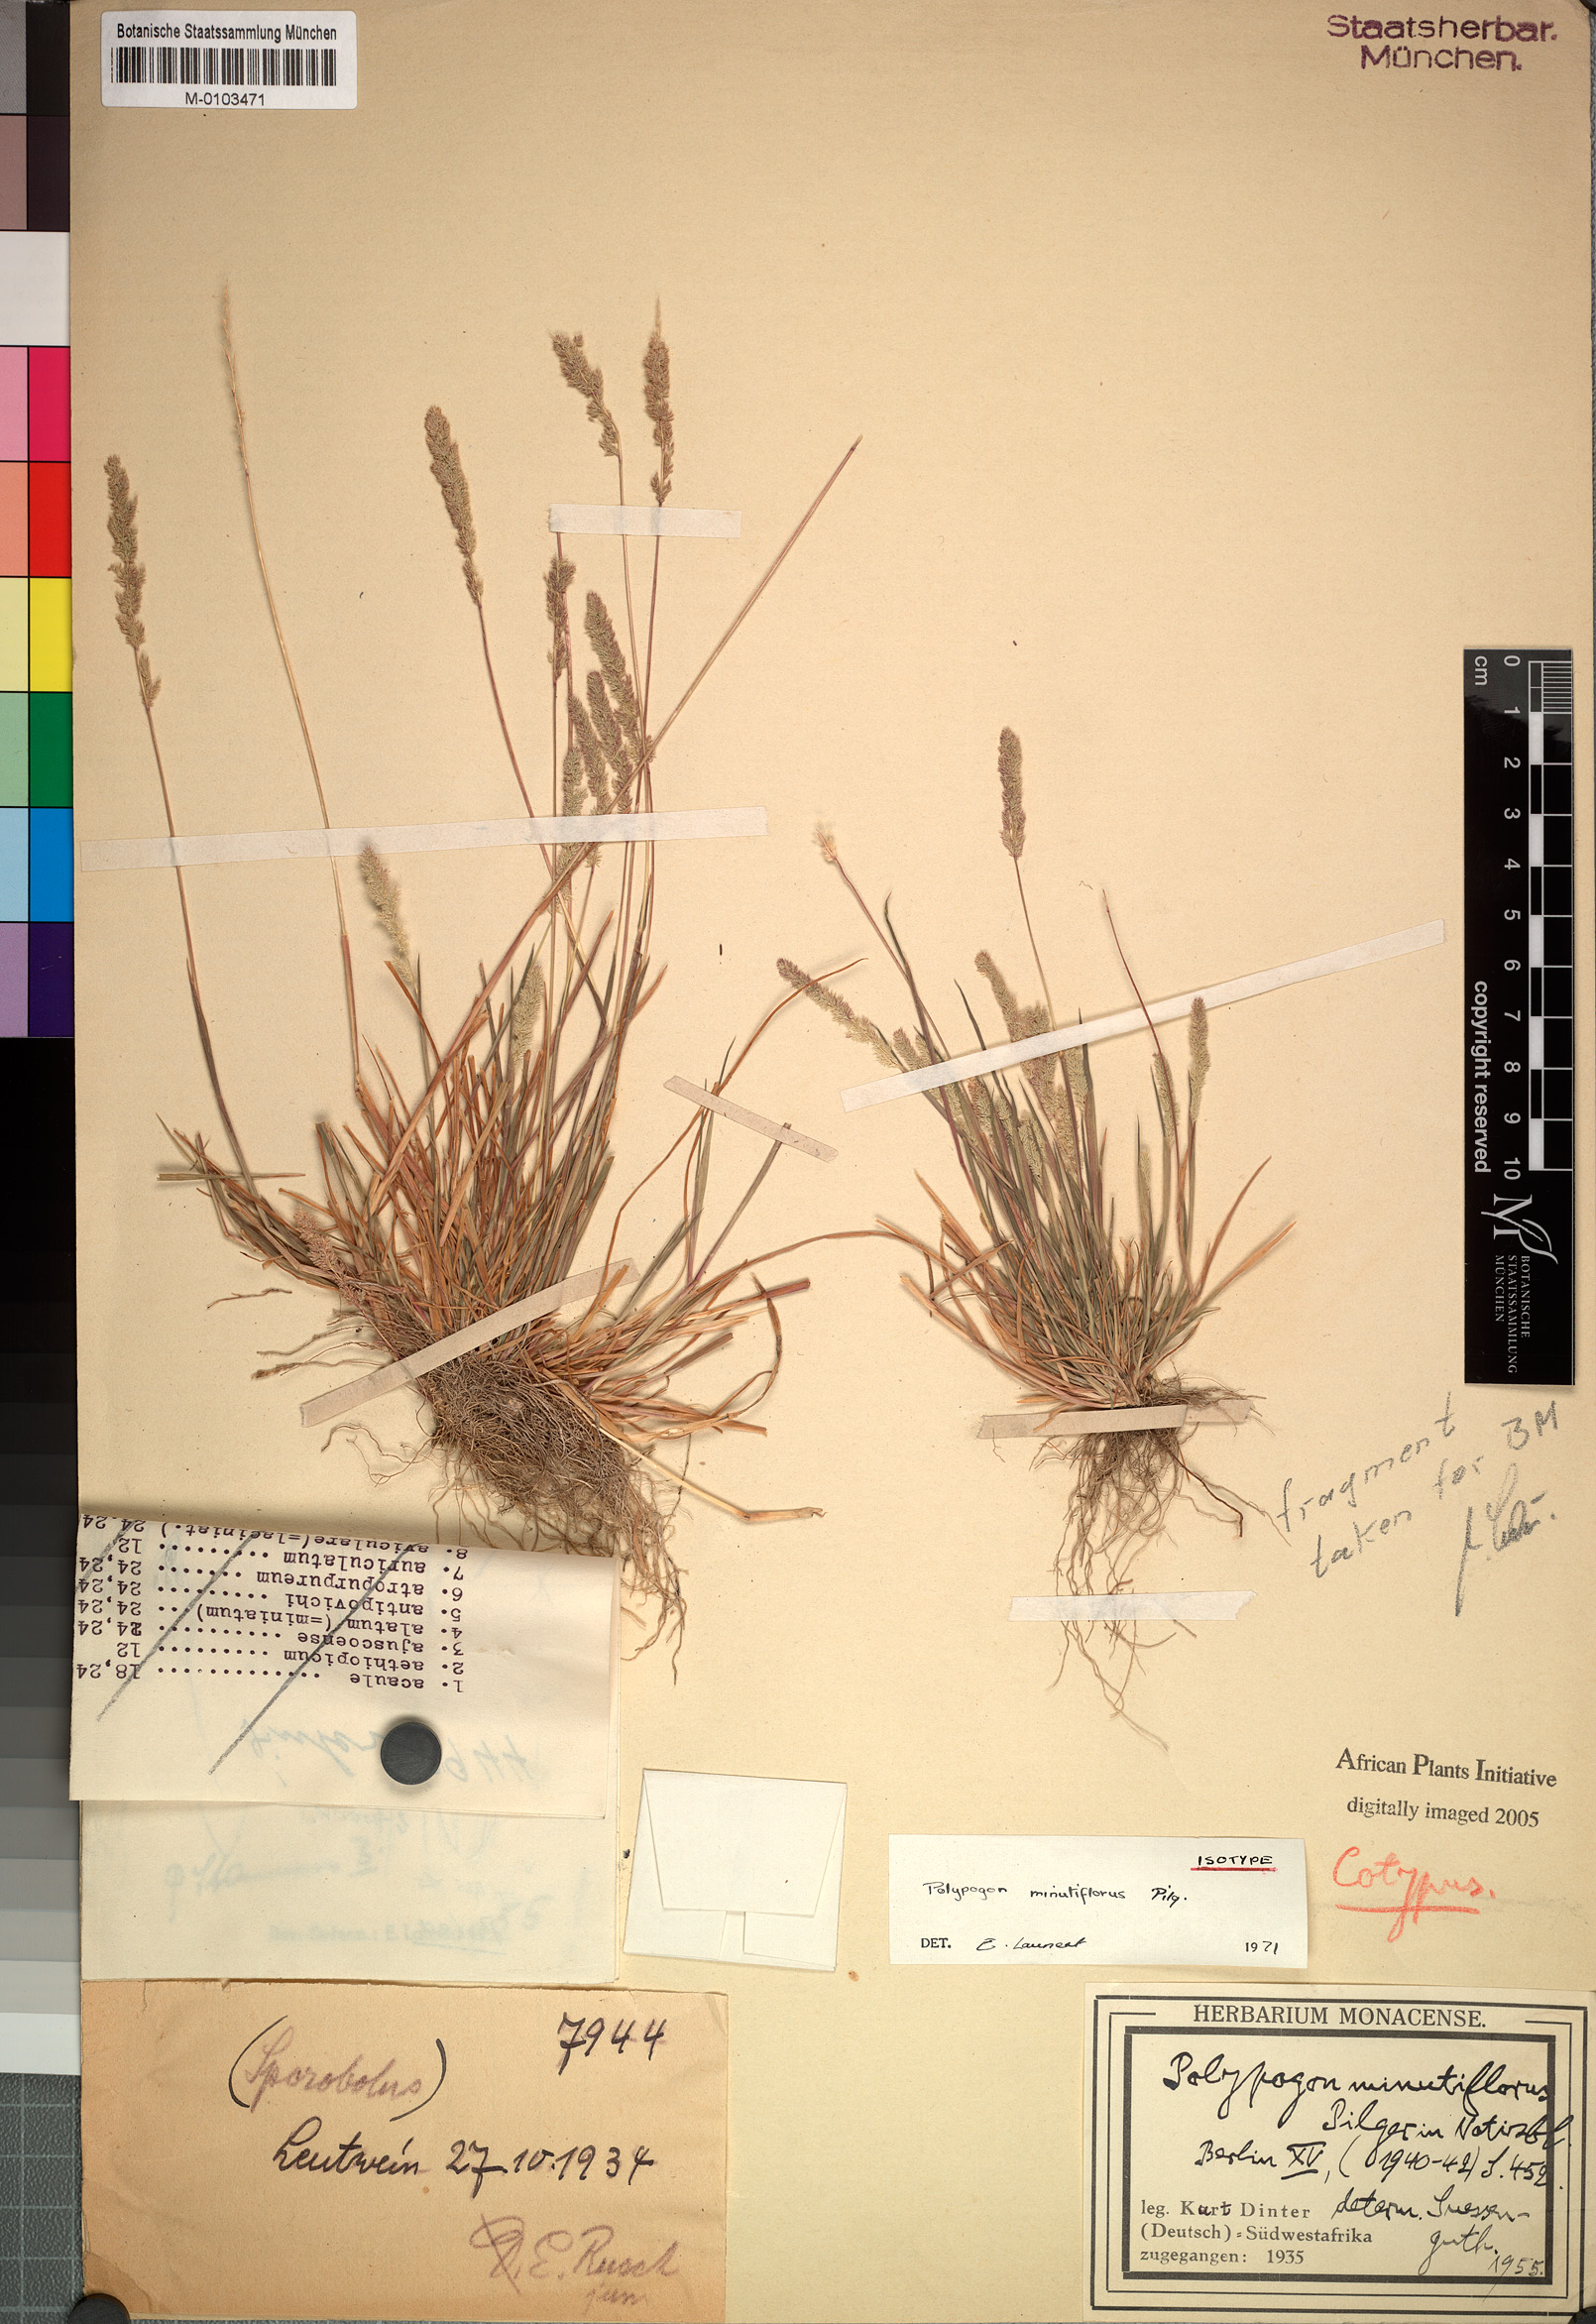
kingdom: Plantae
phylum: Tracheophyta
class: Liliopsida
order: Poales
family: Poaceae
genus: Polypogon
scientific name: Polypogon griquensis
